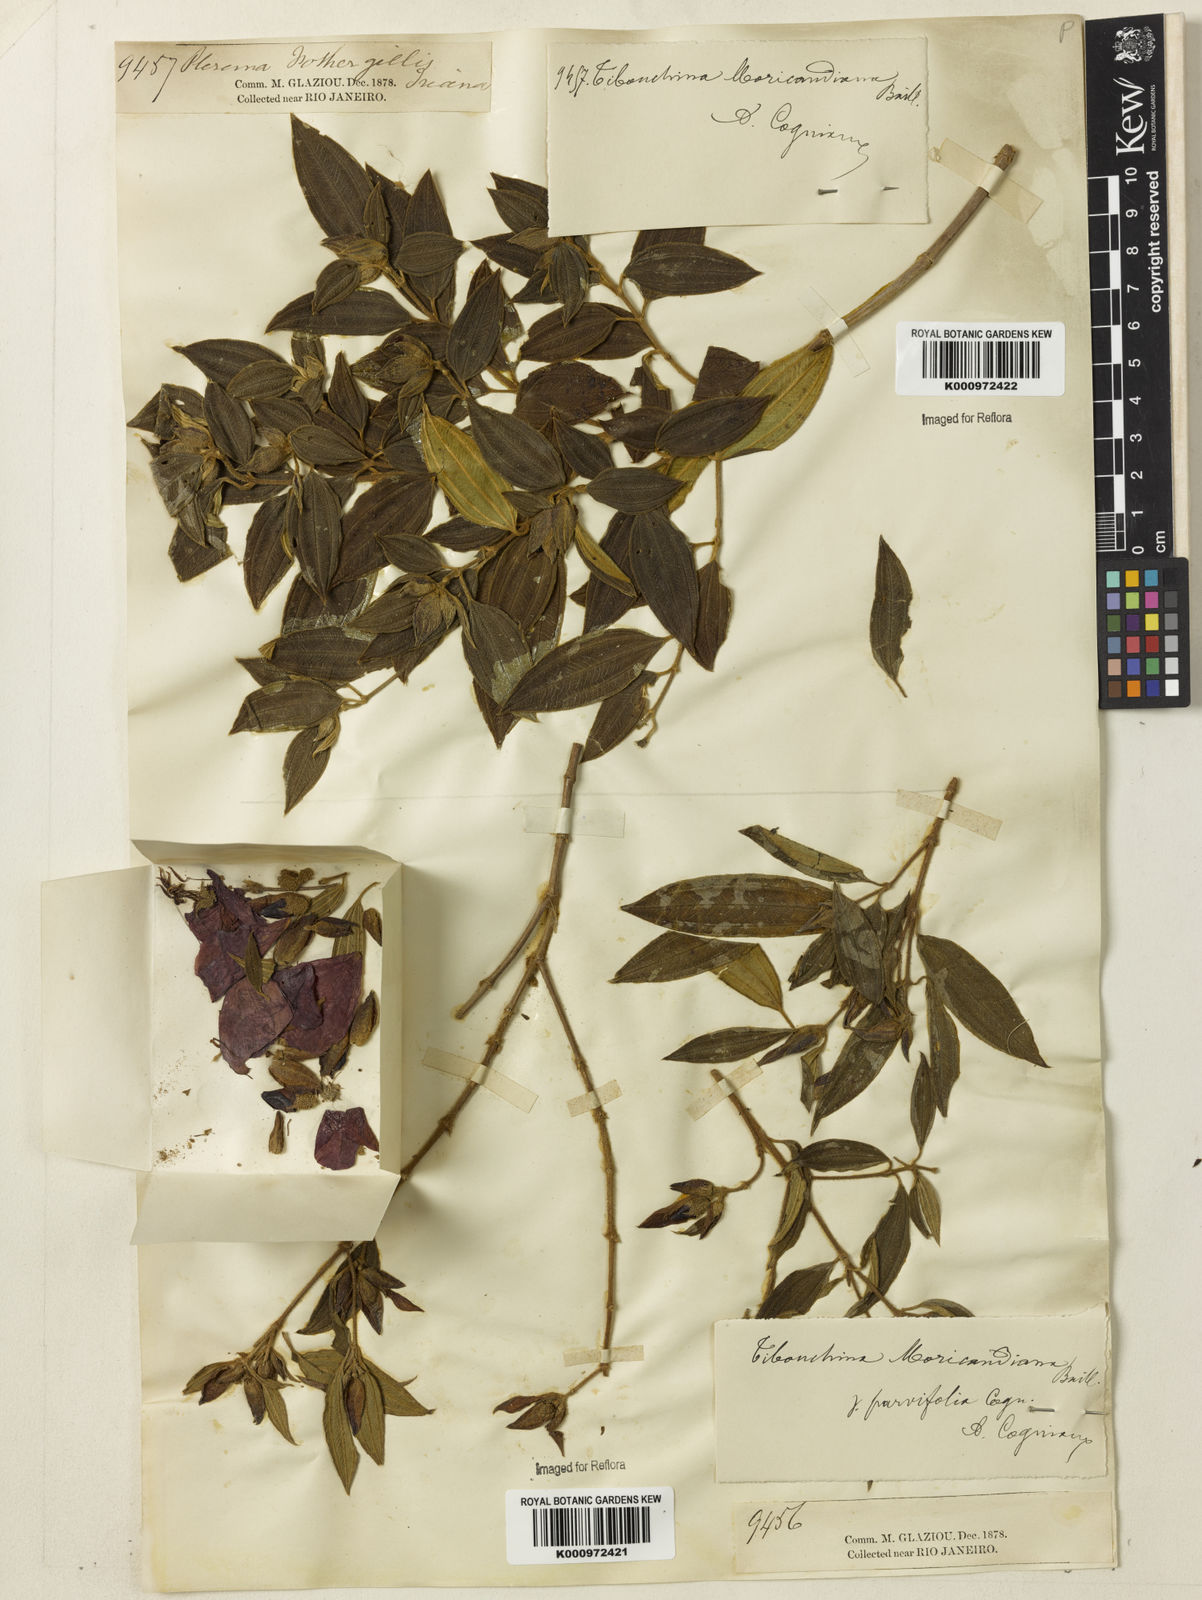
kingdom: Plantae
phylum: Tracheophyta
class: Magnoliopsida
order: Myrtales
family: Melastomataceae
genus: Pleroma
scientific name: Pleroma gaudichaudianum
